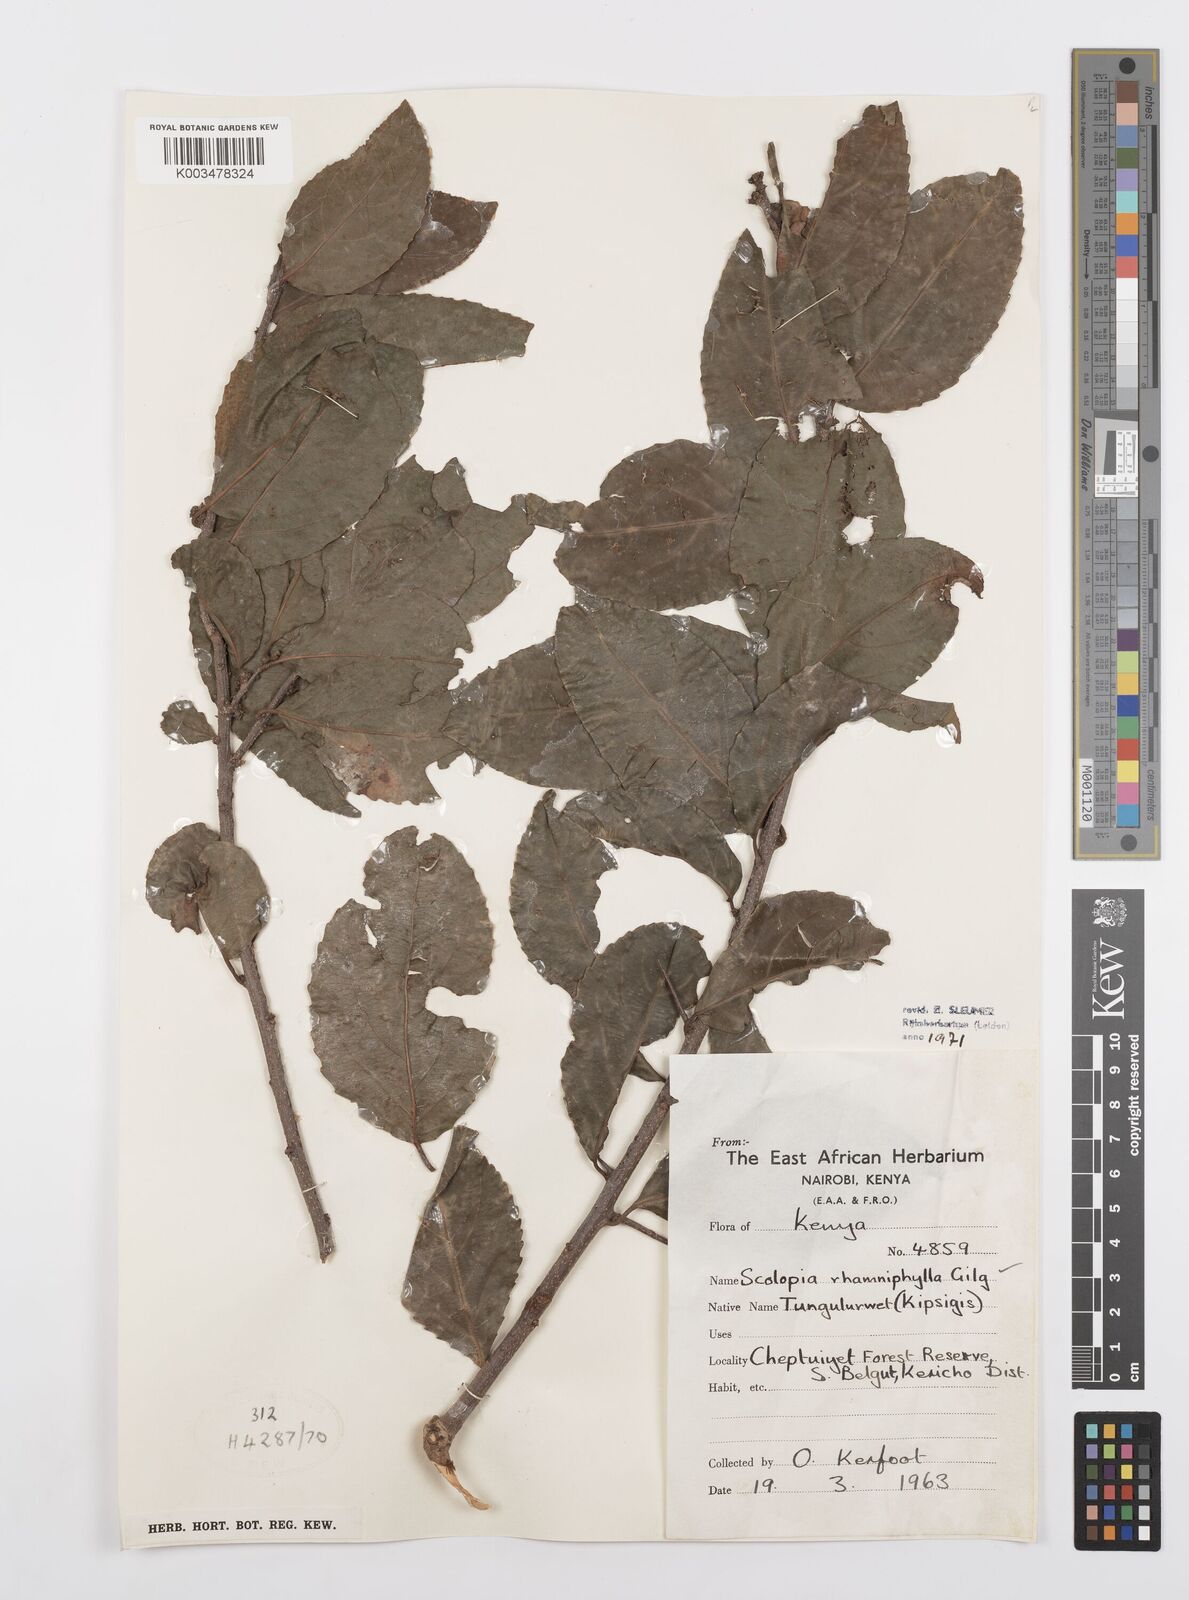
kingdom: Plantae
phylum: Tracheophyta
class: Magnoliopsida
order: Malpighiales
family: Salicaceae
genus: Scolopia
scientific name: Scolopia rhamniphylla
